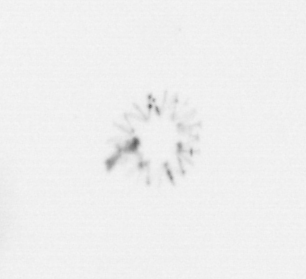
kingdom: Chromista
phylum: Ochrophyta
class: Bacillariophyceae
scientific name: Bacillariophyceae
